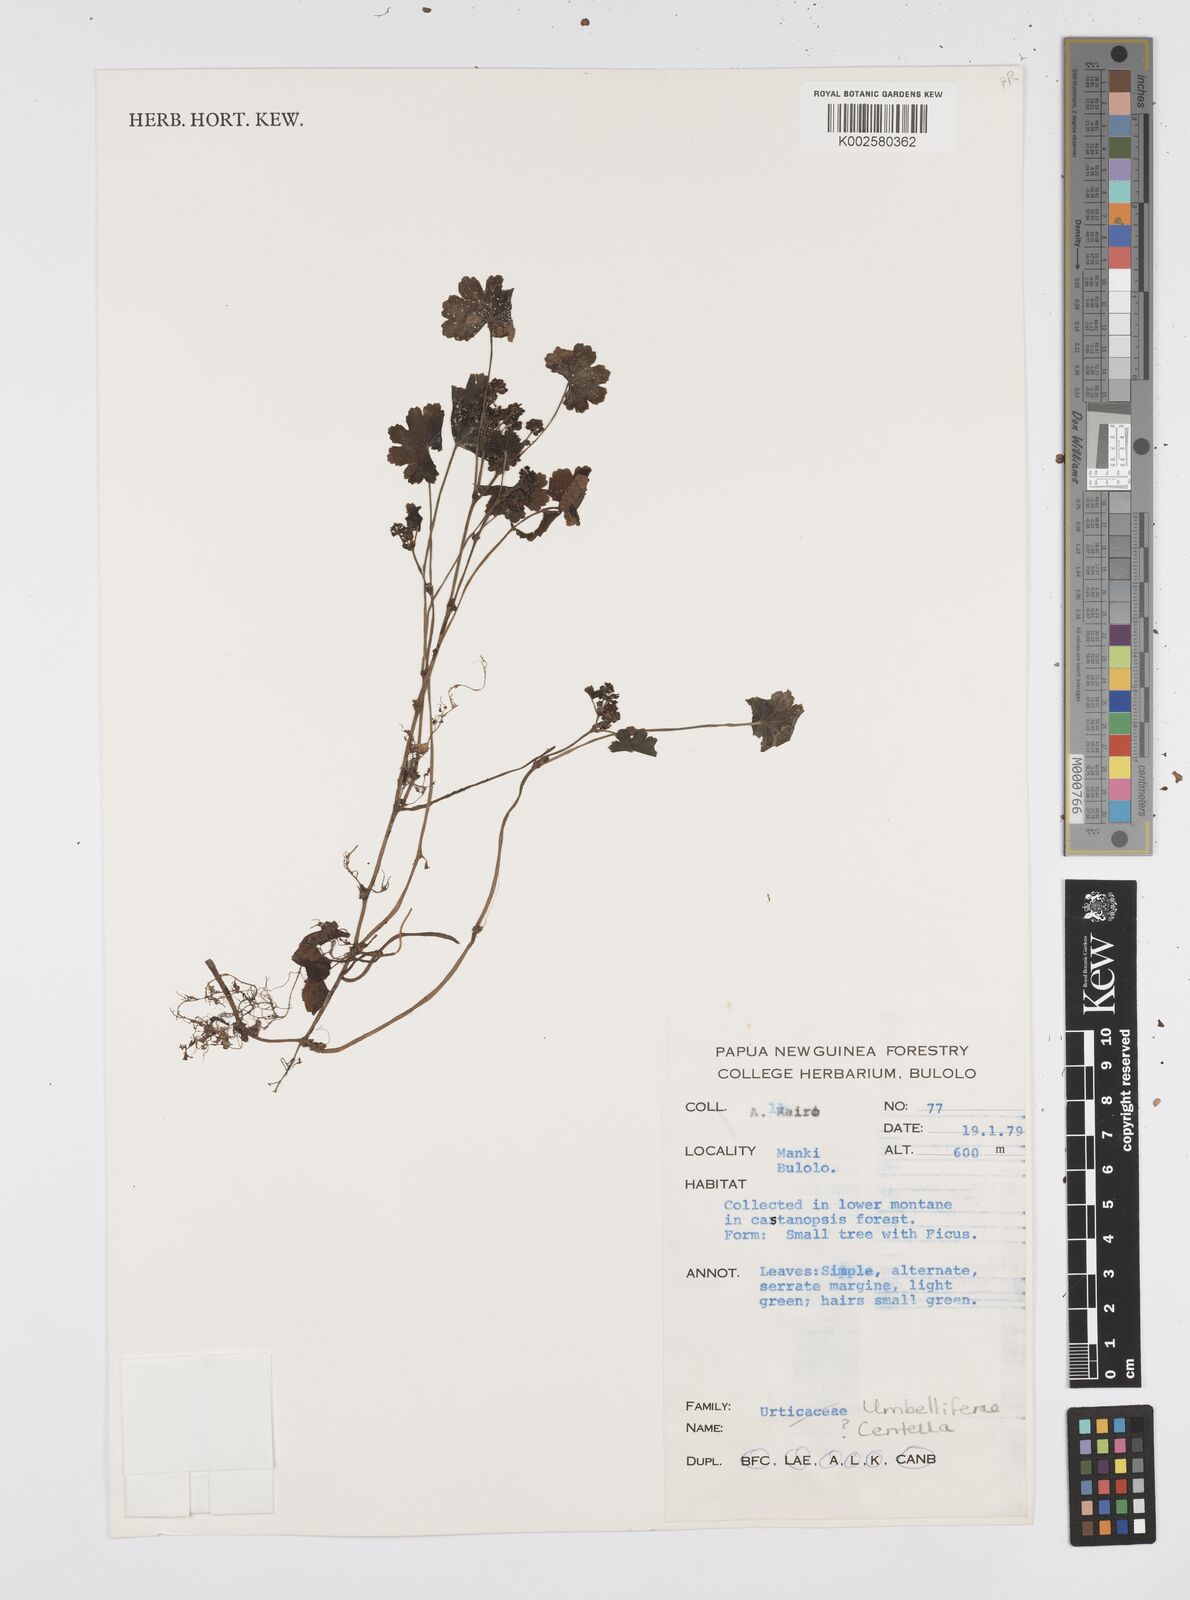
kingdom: Plantae
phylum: Tracheophyta
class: Magnoliopsida
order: Apiales
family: Apiaceae
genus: Centella
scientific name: Centella
